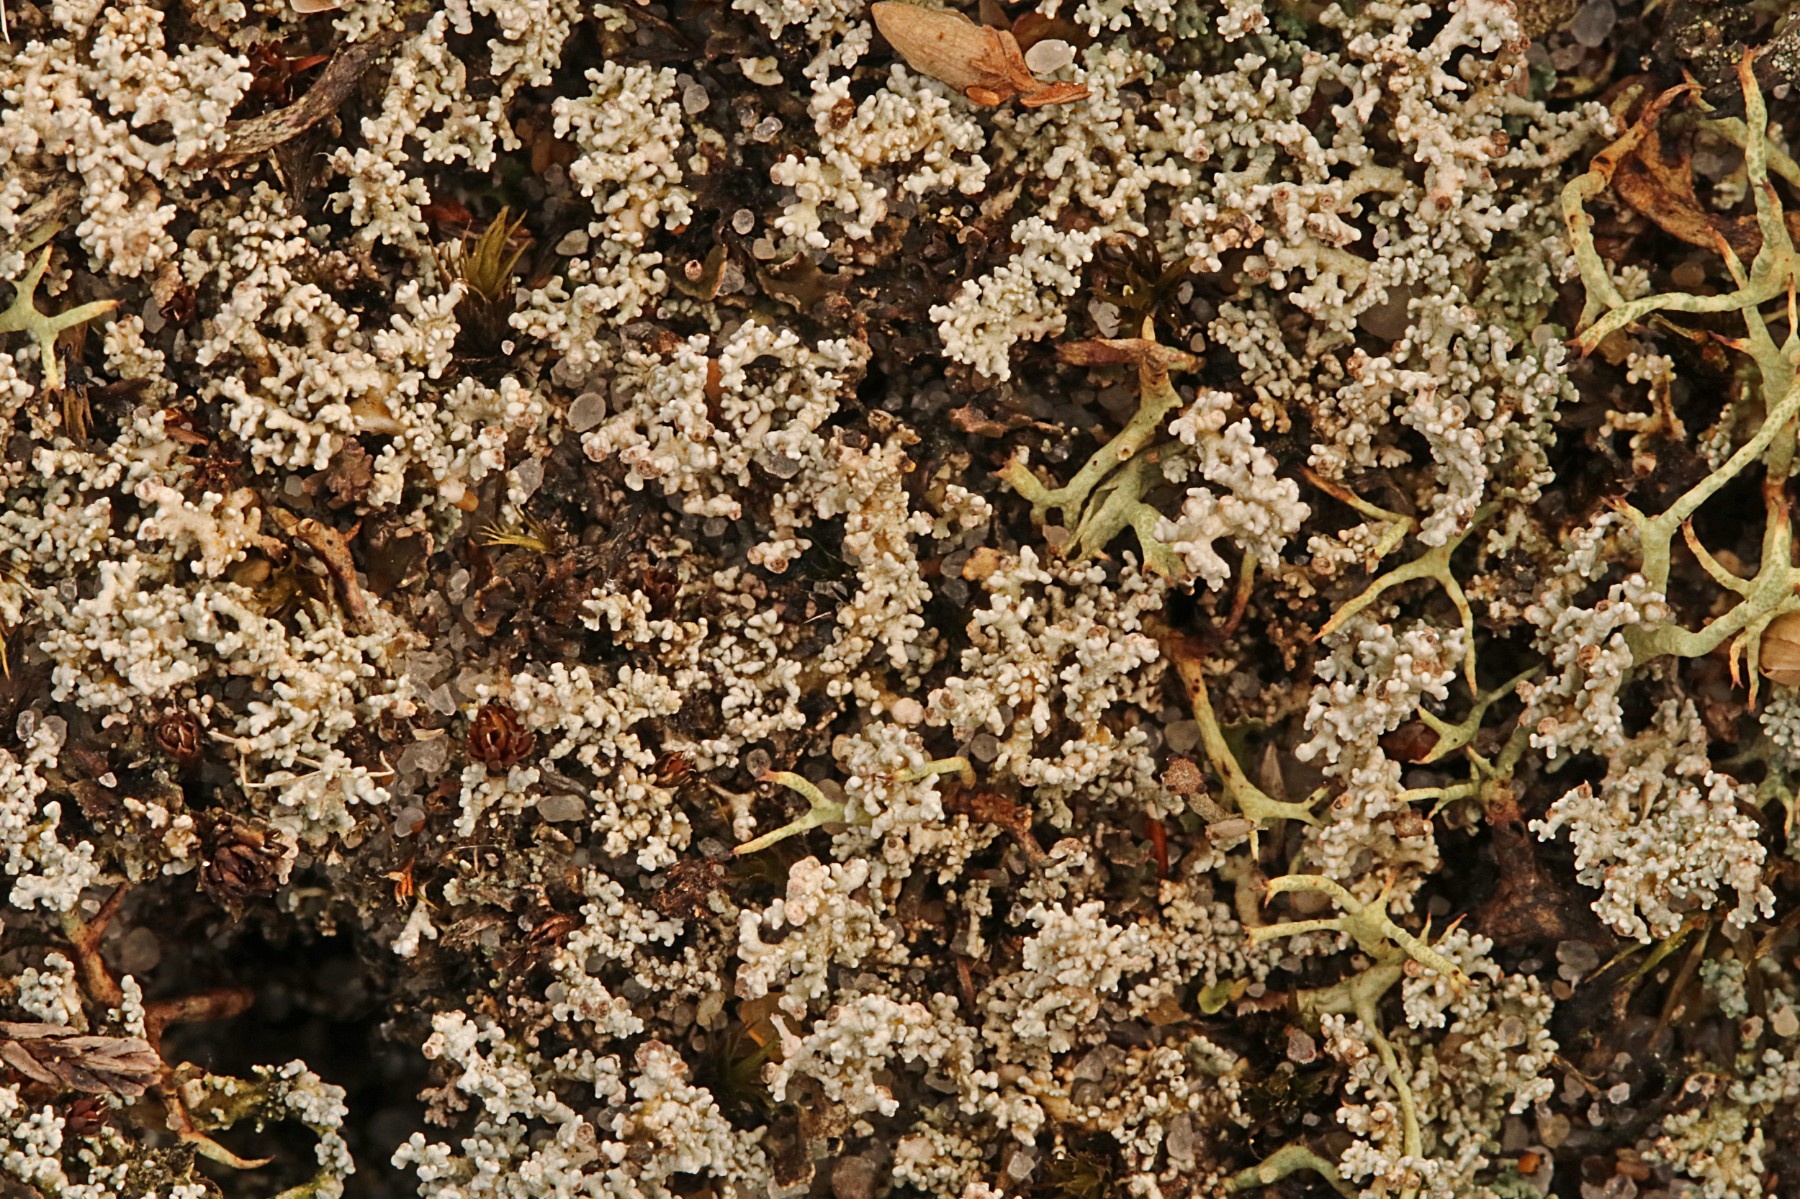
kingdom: Fungi
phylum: Ascomycota
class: Lecanoromycetes
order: Lecanorales
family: Stereocaulaceae
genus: Stereocaulon
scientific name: Stereocaulon condensatum
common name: lav korallav
